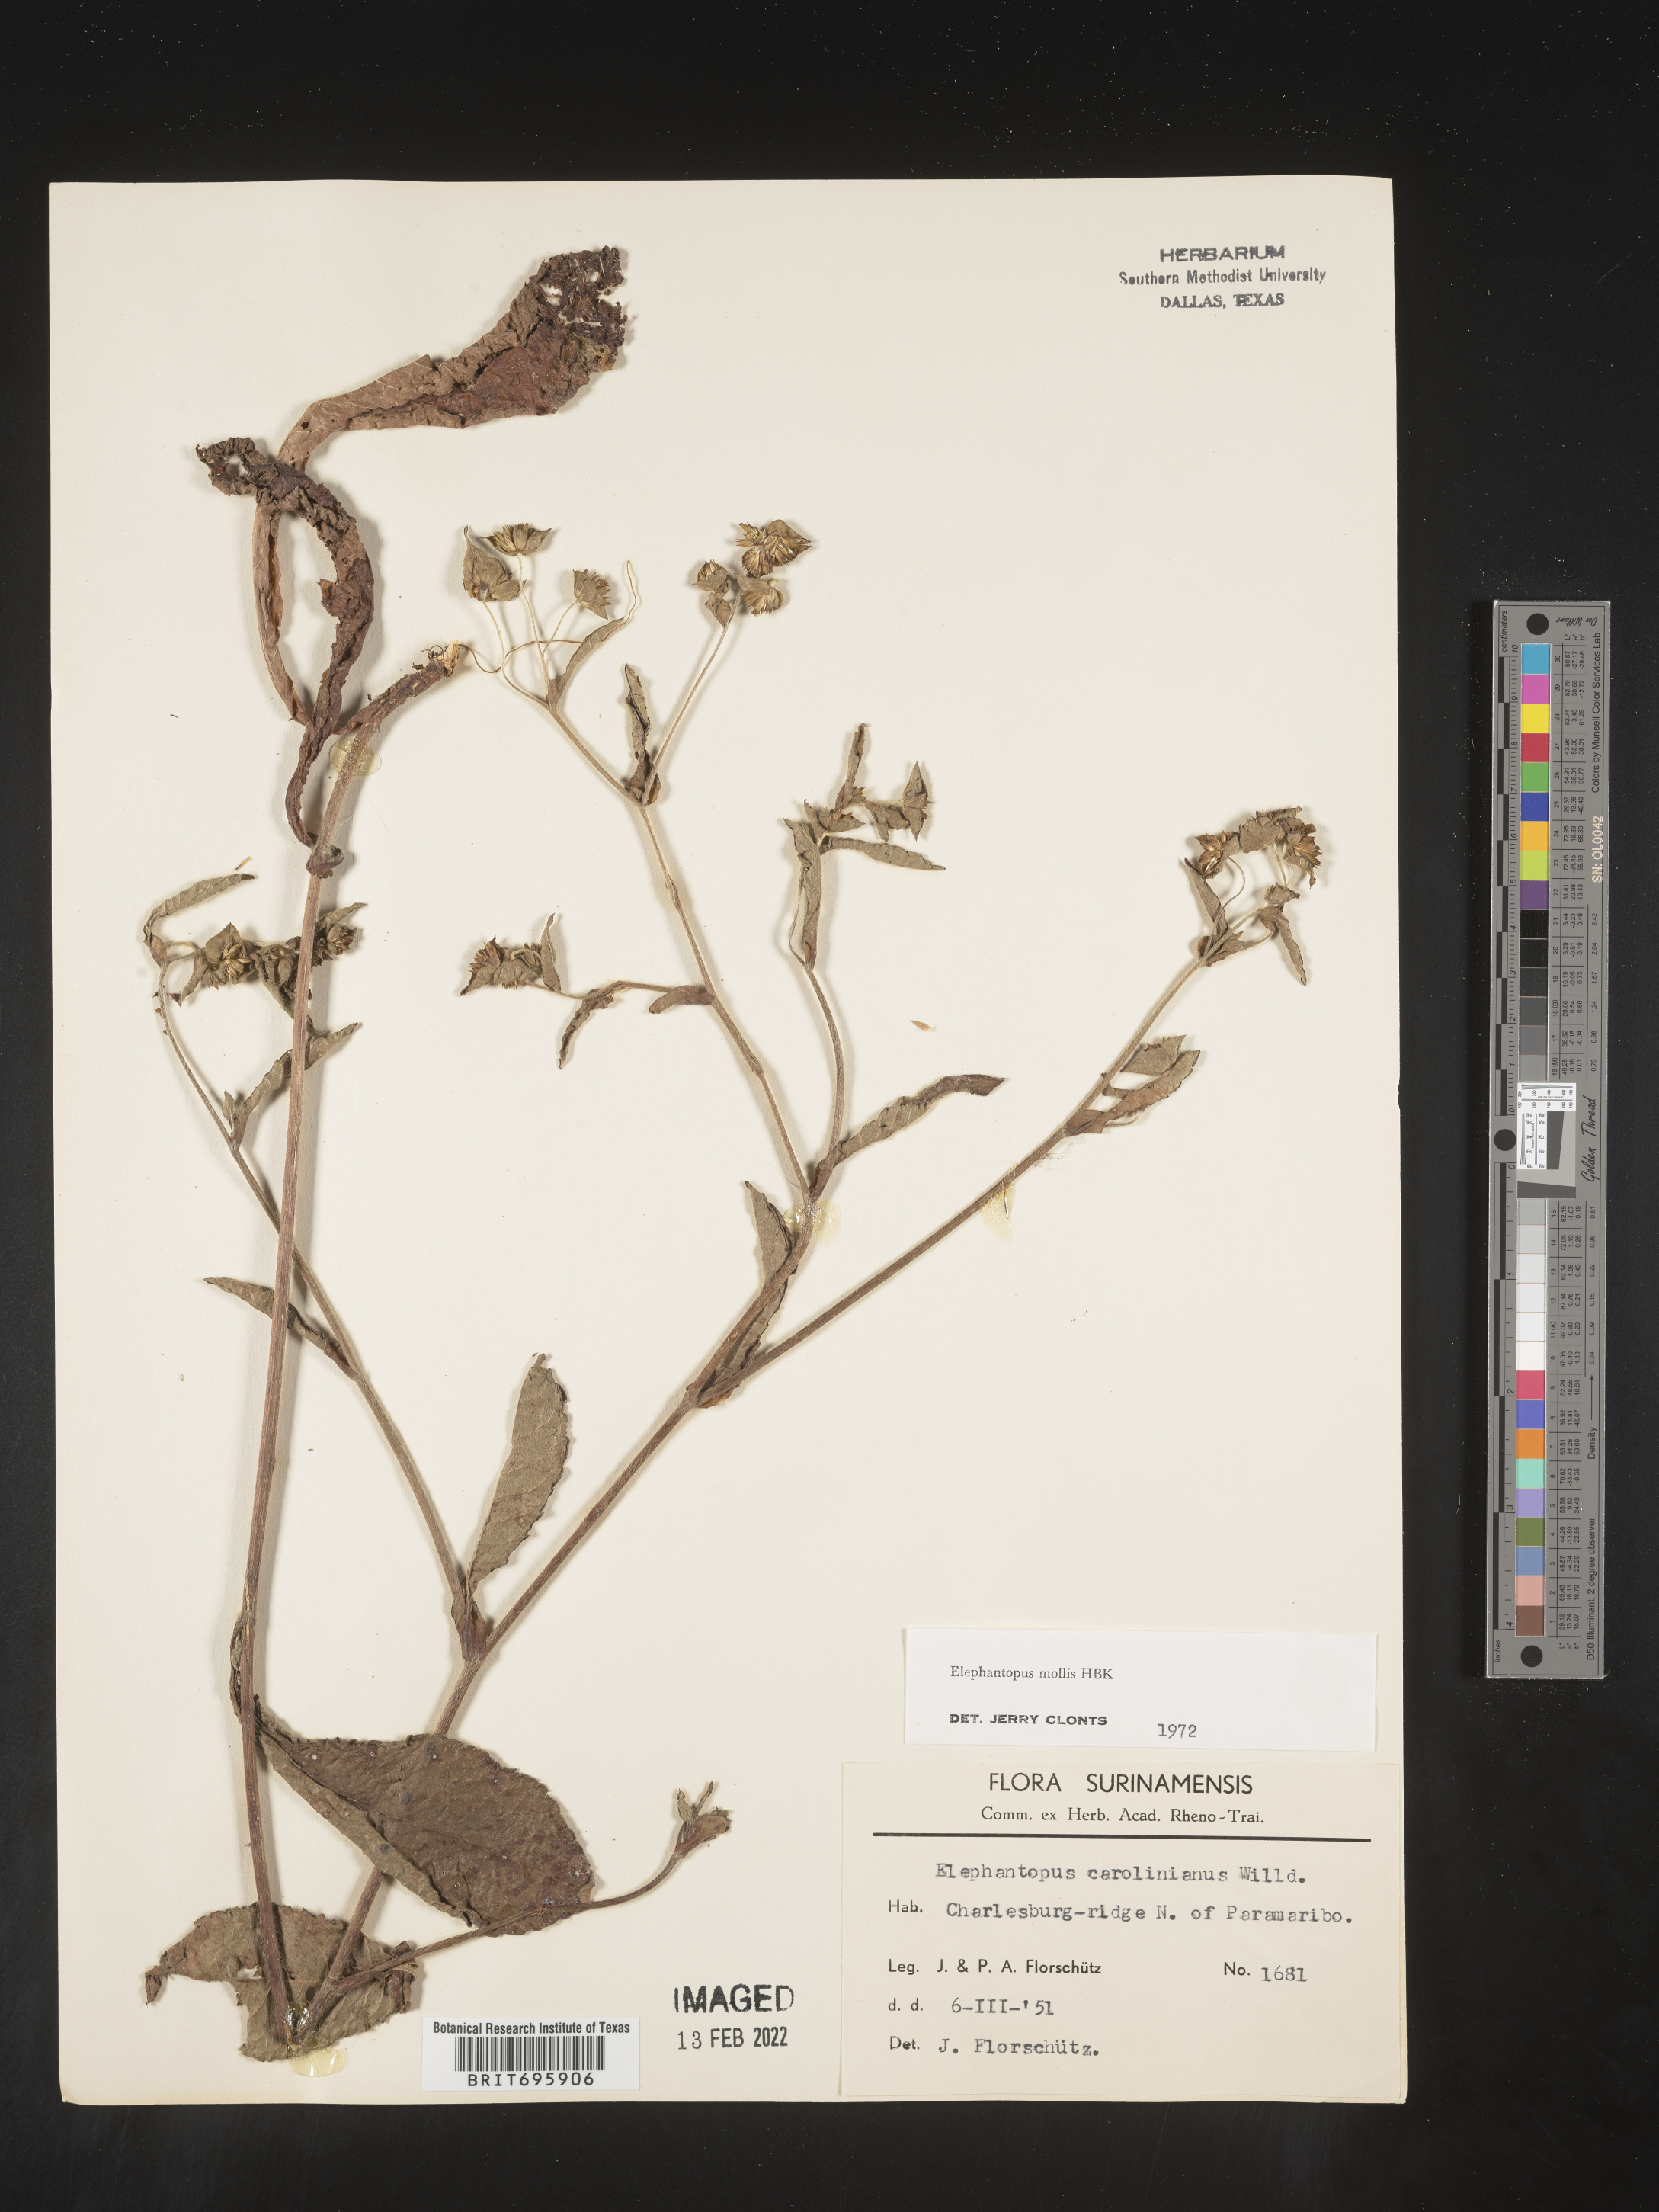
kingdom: Plantae
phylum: Tracheophyta
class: Magnoliopsida
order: Asterales
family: Asteraceae
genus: Elephantopus
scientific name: Elephantopus
